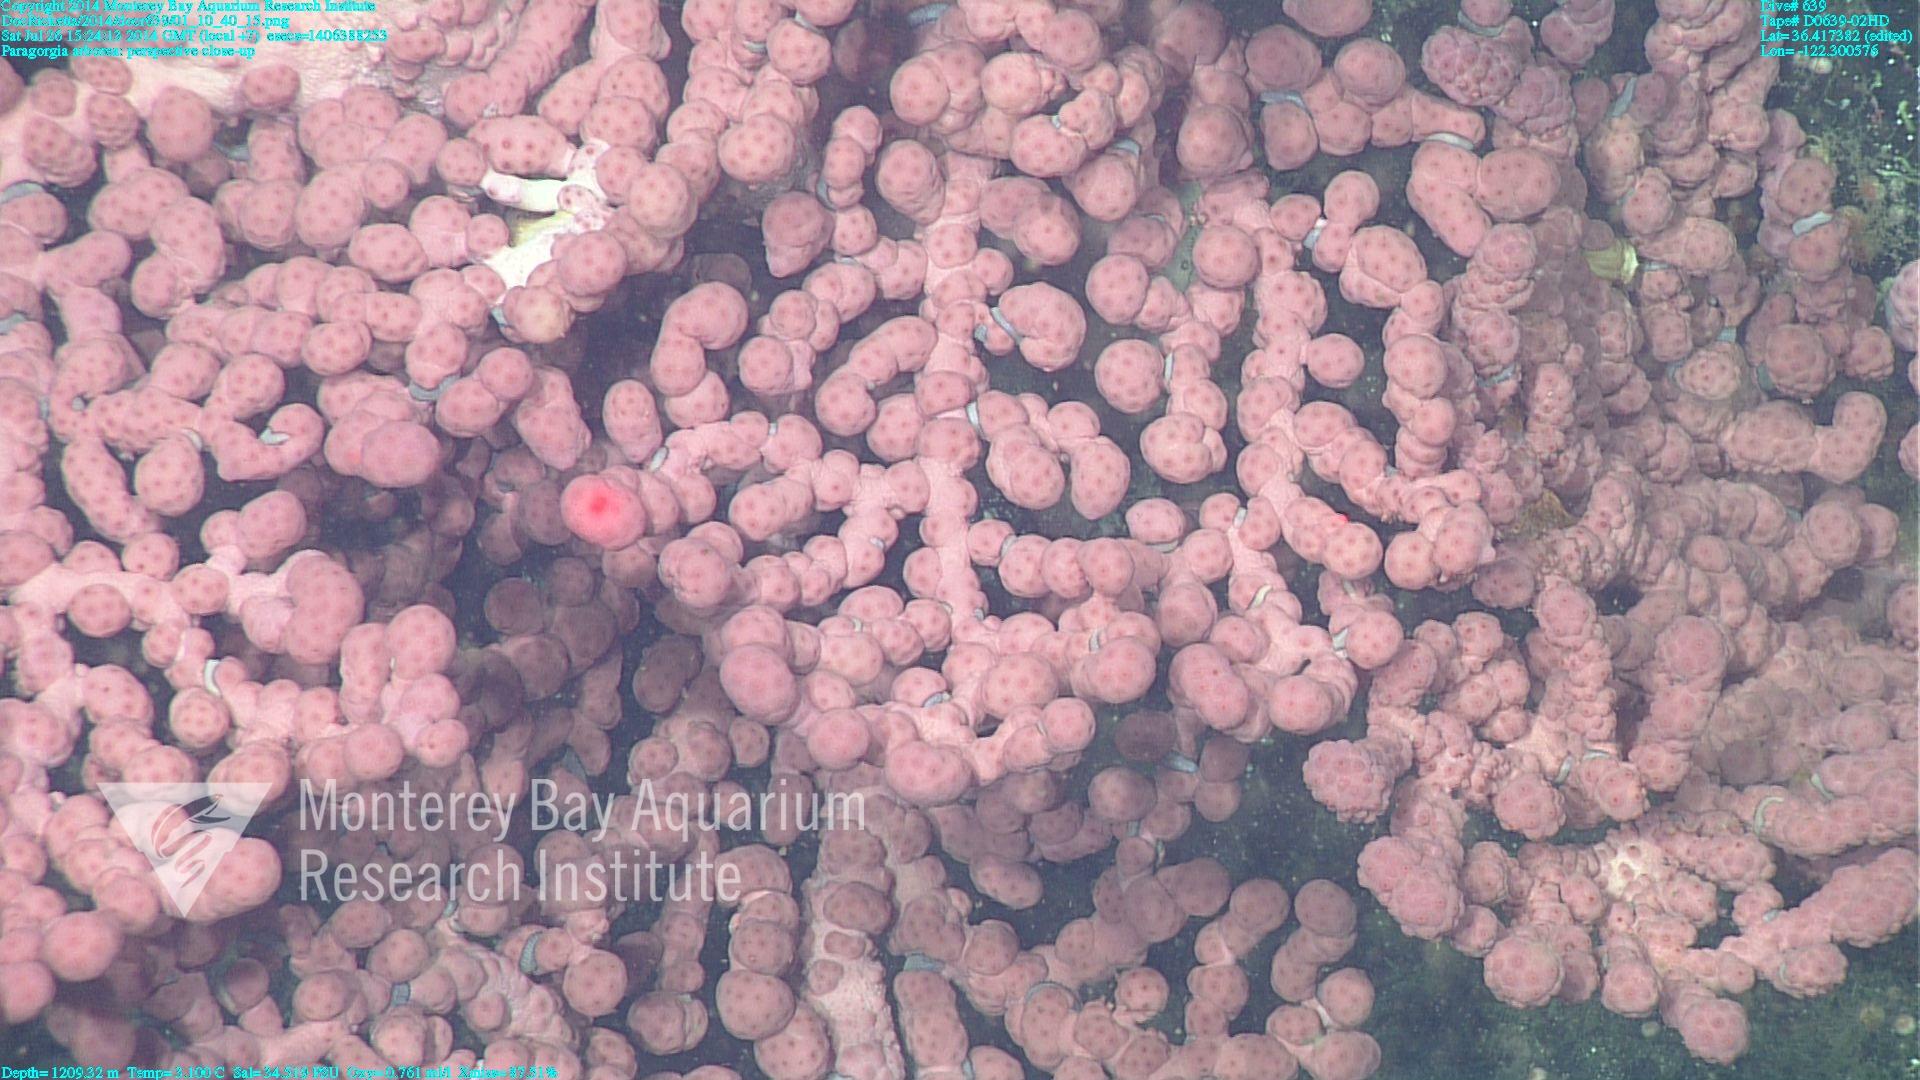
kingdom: Animalia
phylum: Cnidaria
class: Anthozoa
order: Scleralcyonacea
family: Coralliidae
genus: Paragorgia
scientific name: Paragorgia arborea
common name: Bubble gum coral
